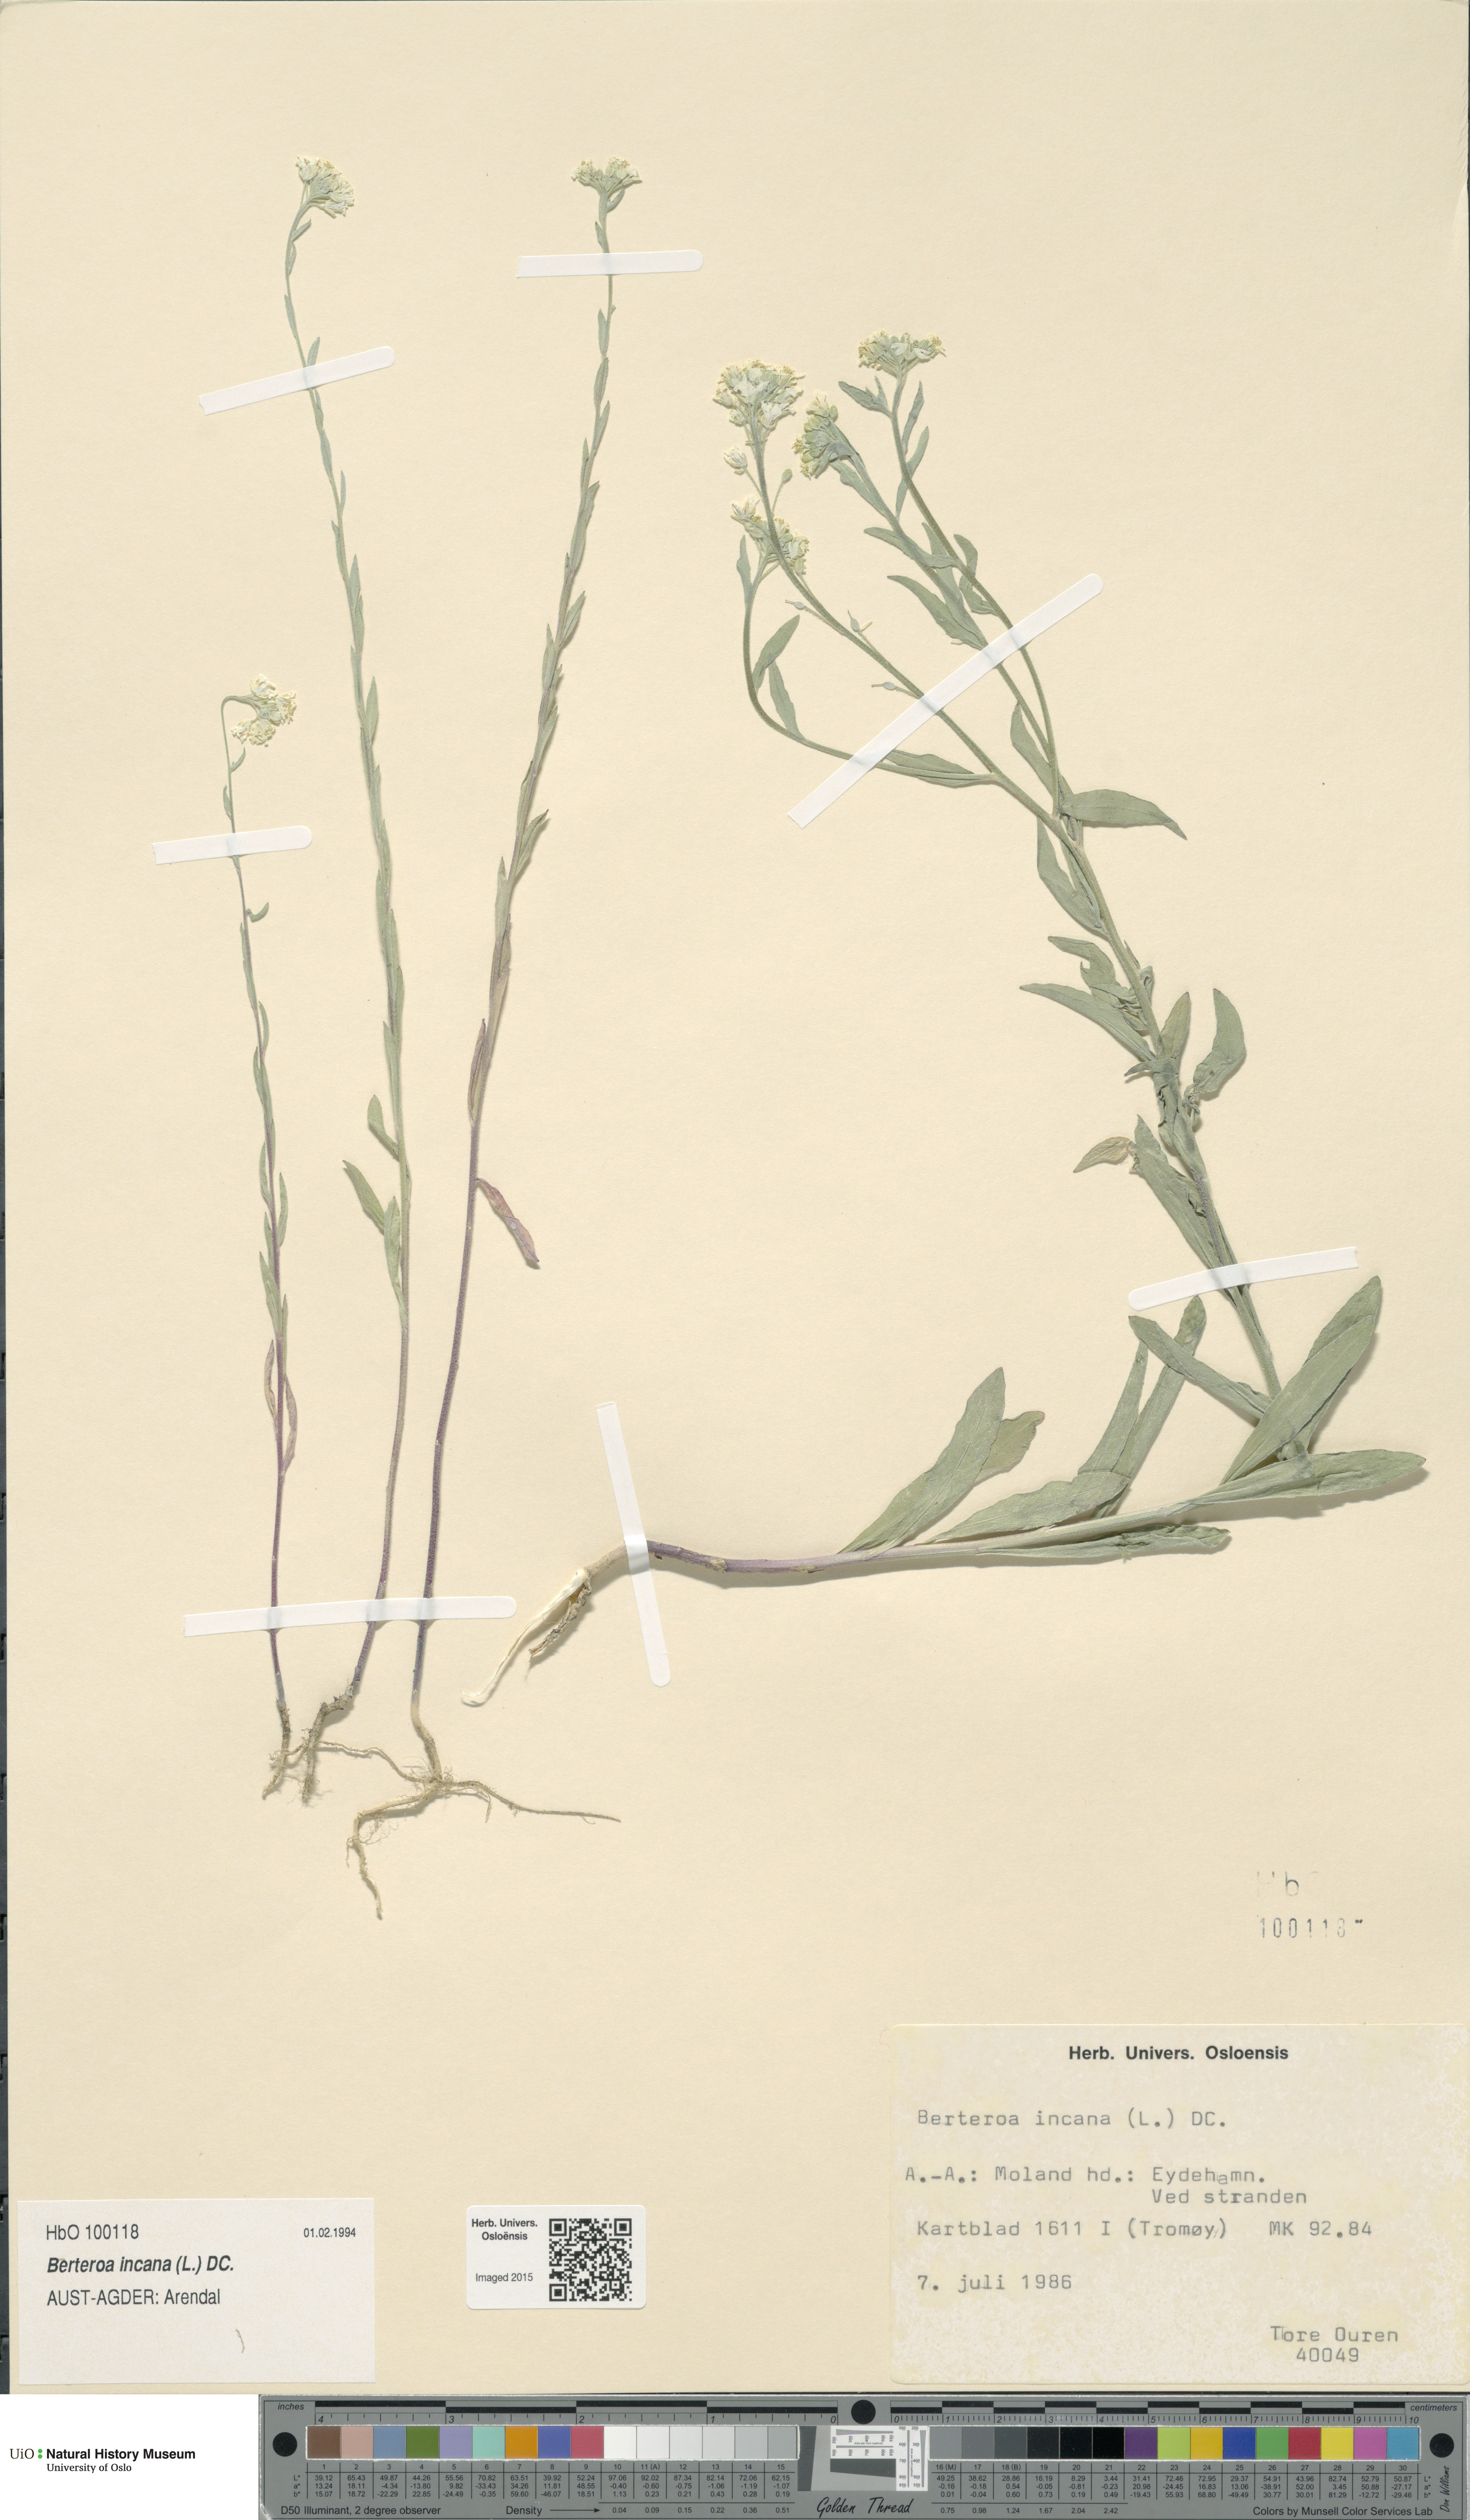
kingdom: Plantae
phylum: Tracheophyta
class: Magnoliopsida
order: Brassicales
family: Brassicaceae
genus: Berteroa
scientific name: Berteroa incana
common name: Hoary alison
